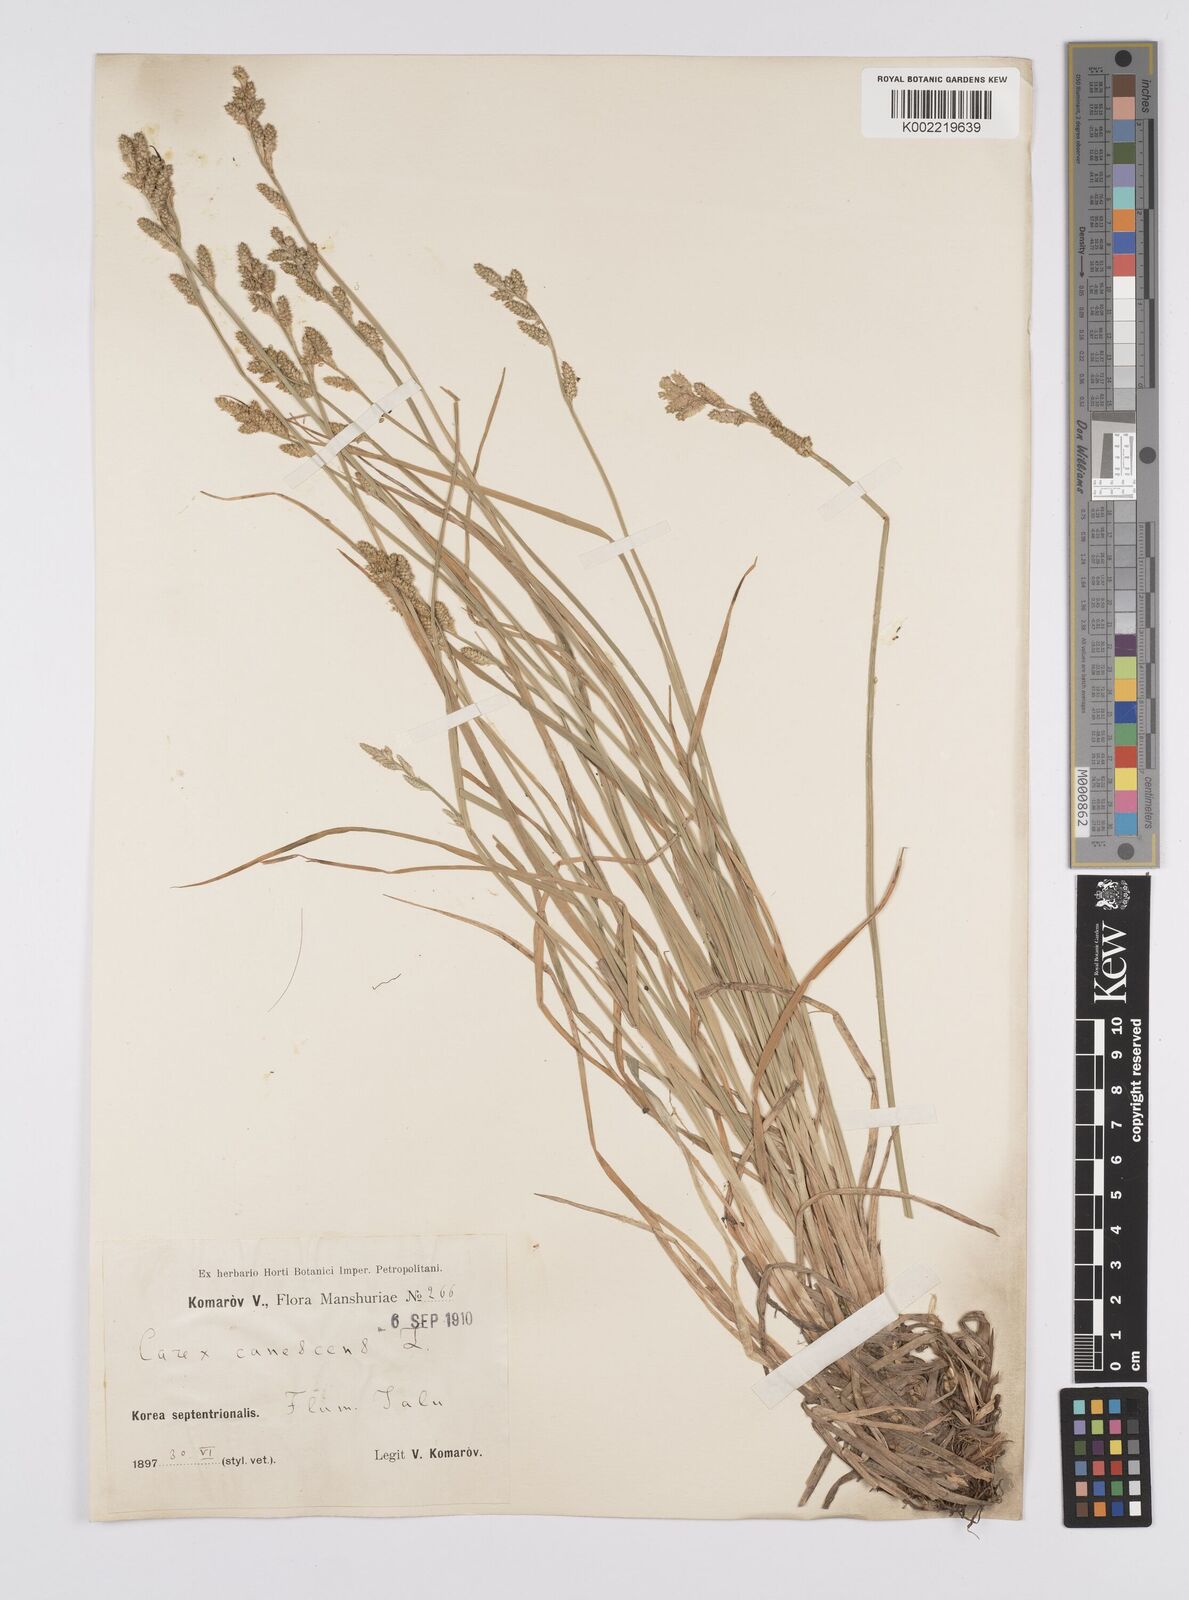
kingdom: Plantae
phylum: Tracheophyta
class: Liliopsida
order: Poales
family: Cyperaceae
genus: Carex
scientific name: Carex canescens
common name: White sedge
